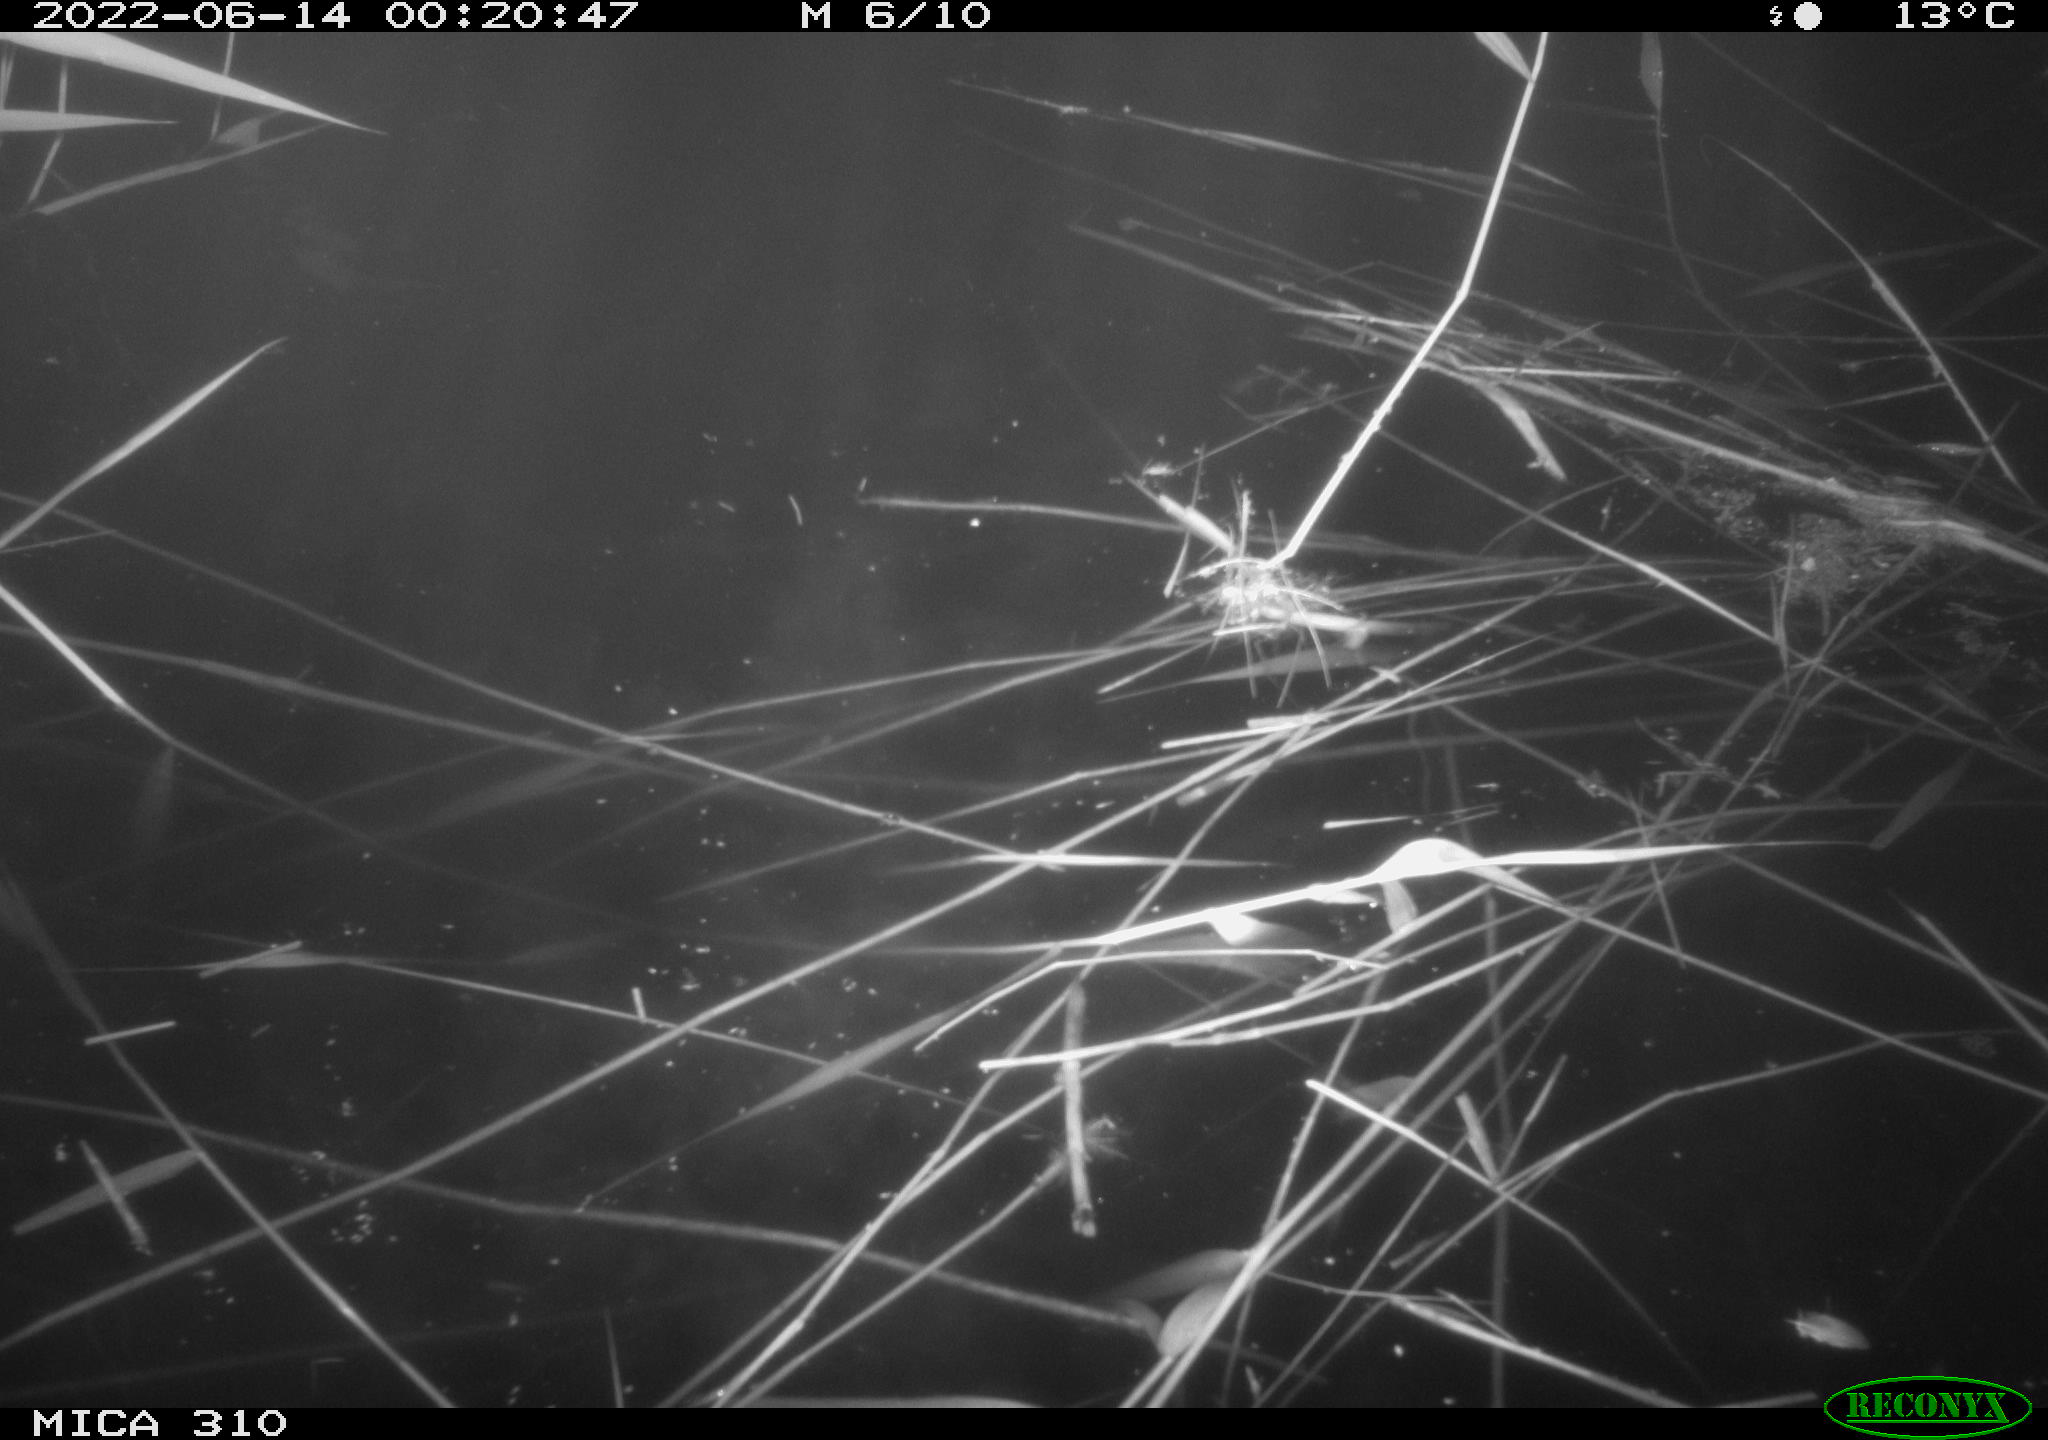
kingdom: Animalia
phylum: Chordata
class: Mammalia
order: Rodentia
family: Cricetidae
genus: Ondatra
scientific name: Ondatra zibethicus
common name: Muskrat
